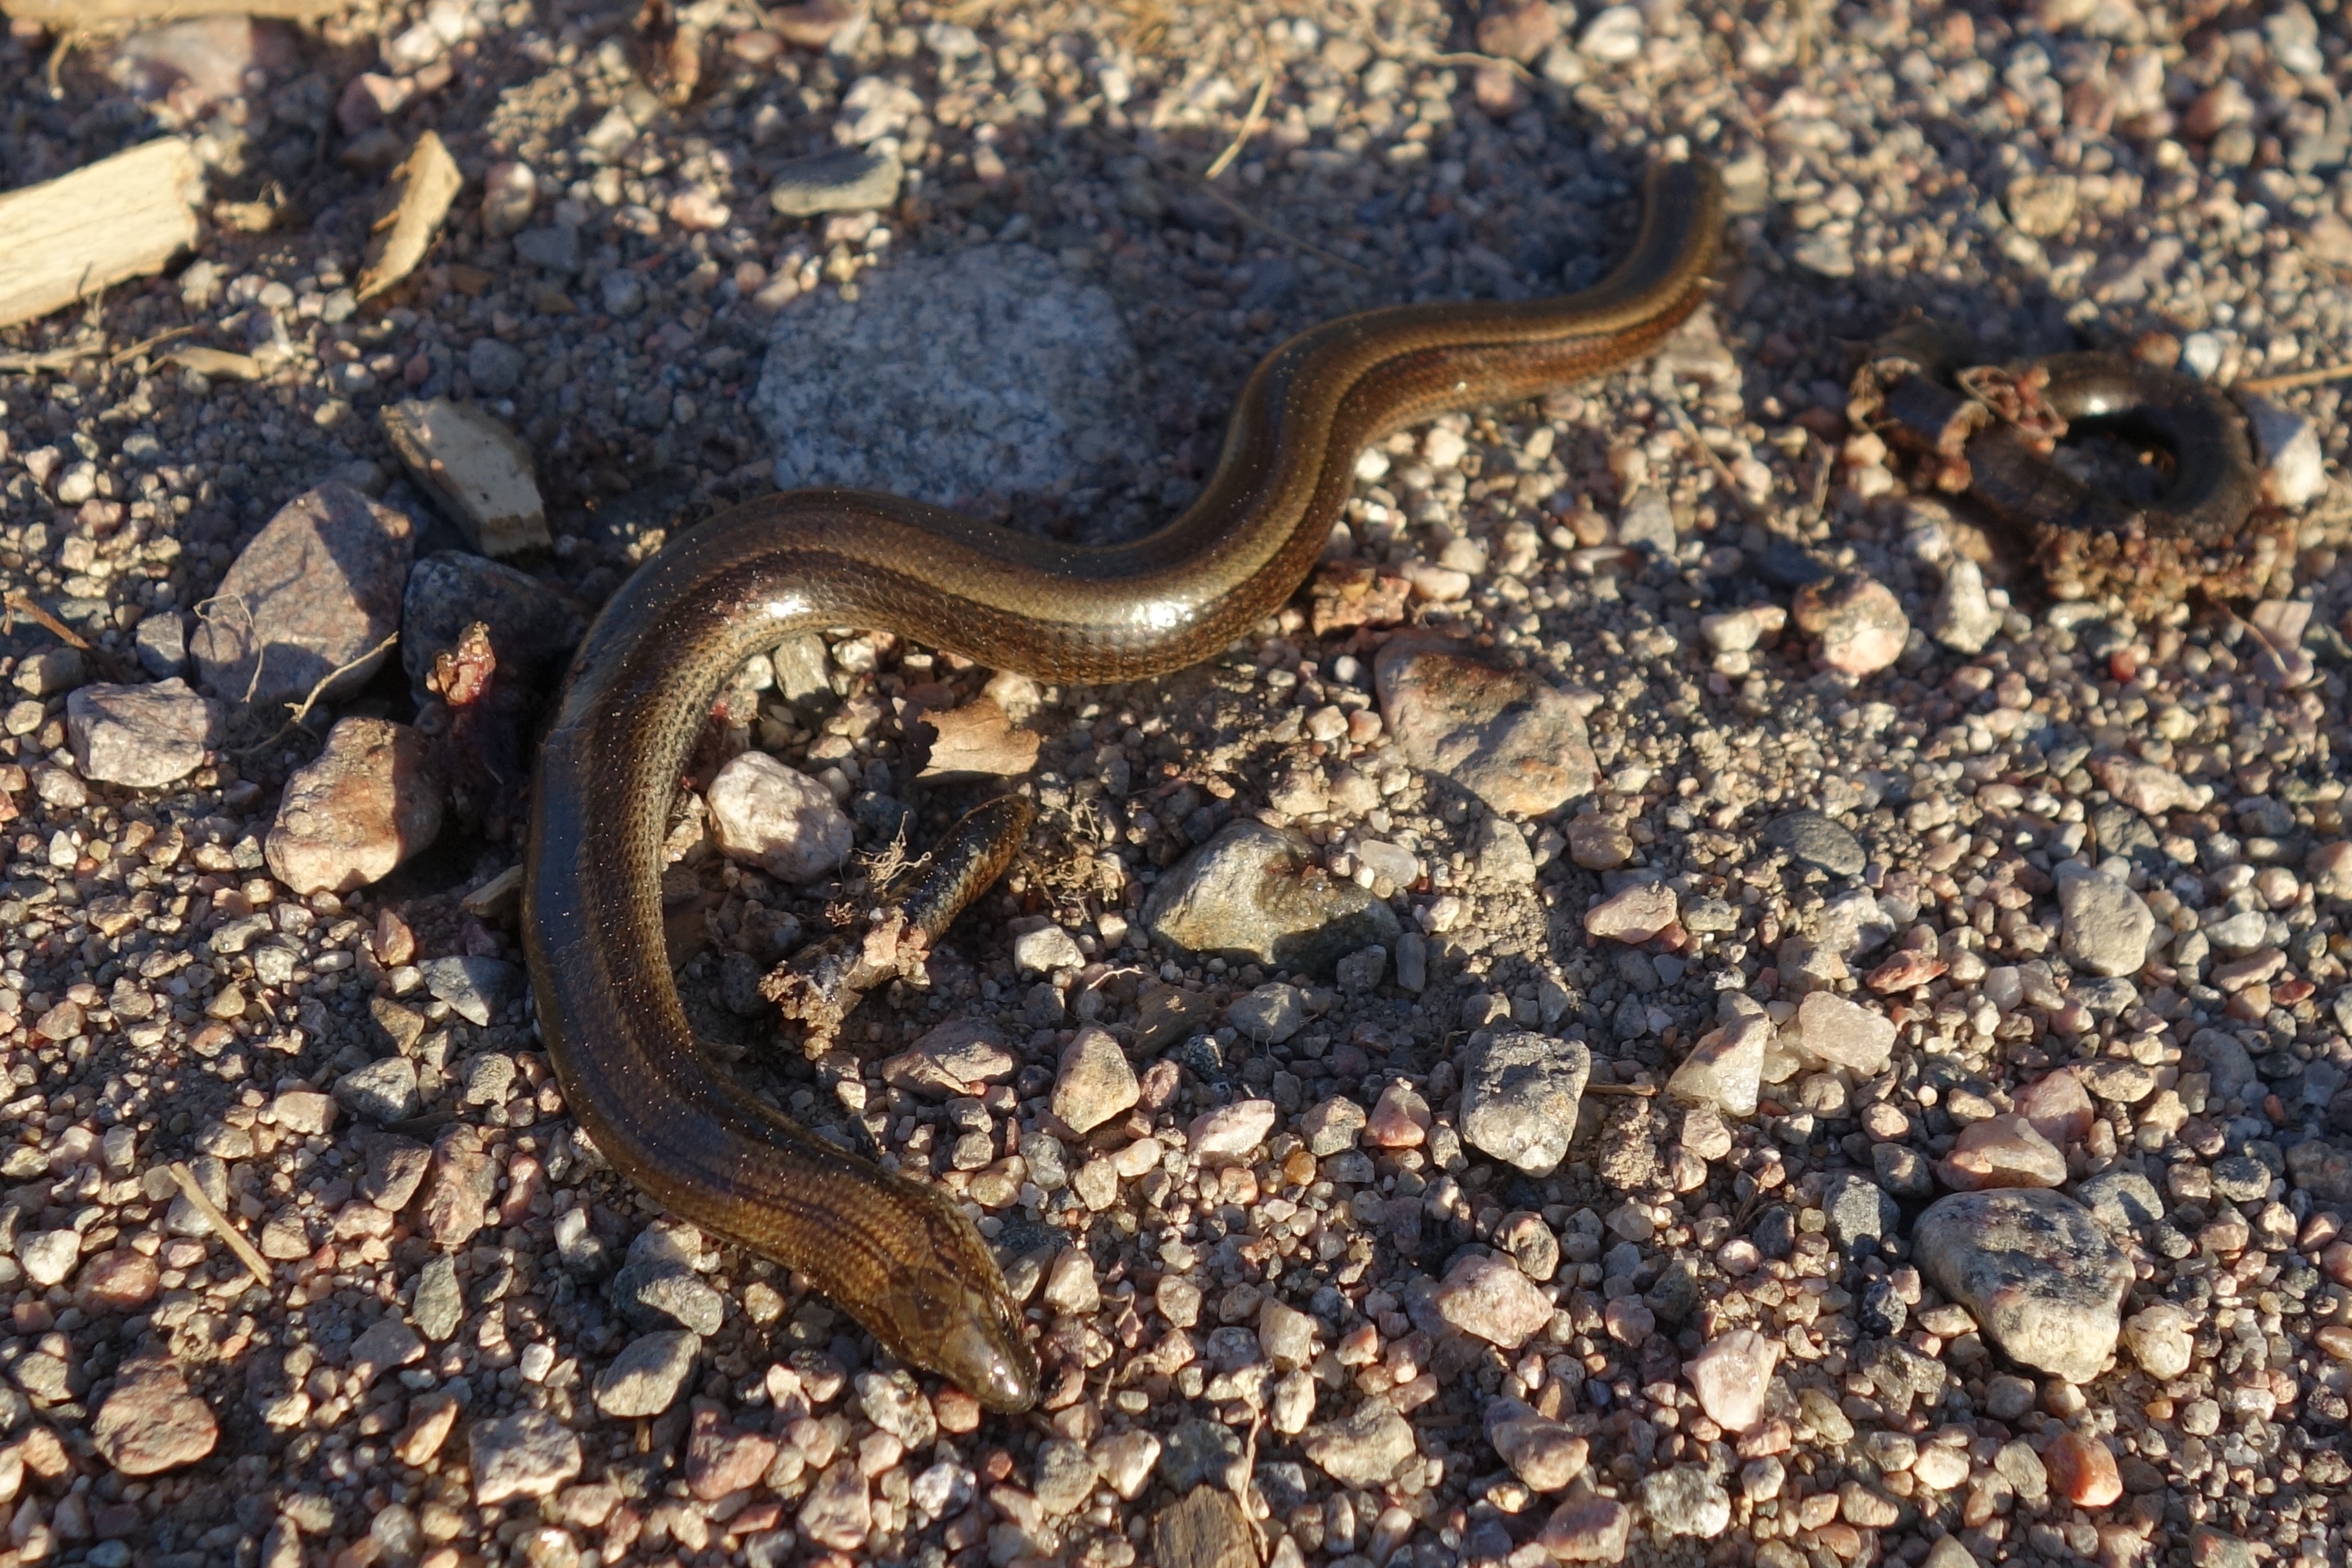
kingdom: Animalia
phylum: Chordata
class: Squamata
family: Anguidae
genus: Anguis
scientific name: Anguis colchica
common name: Slow worm
